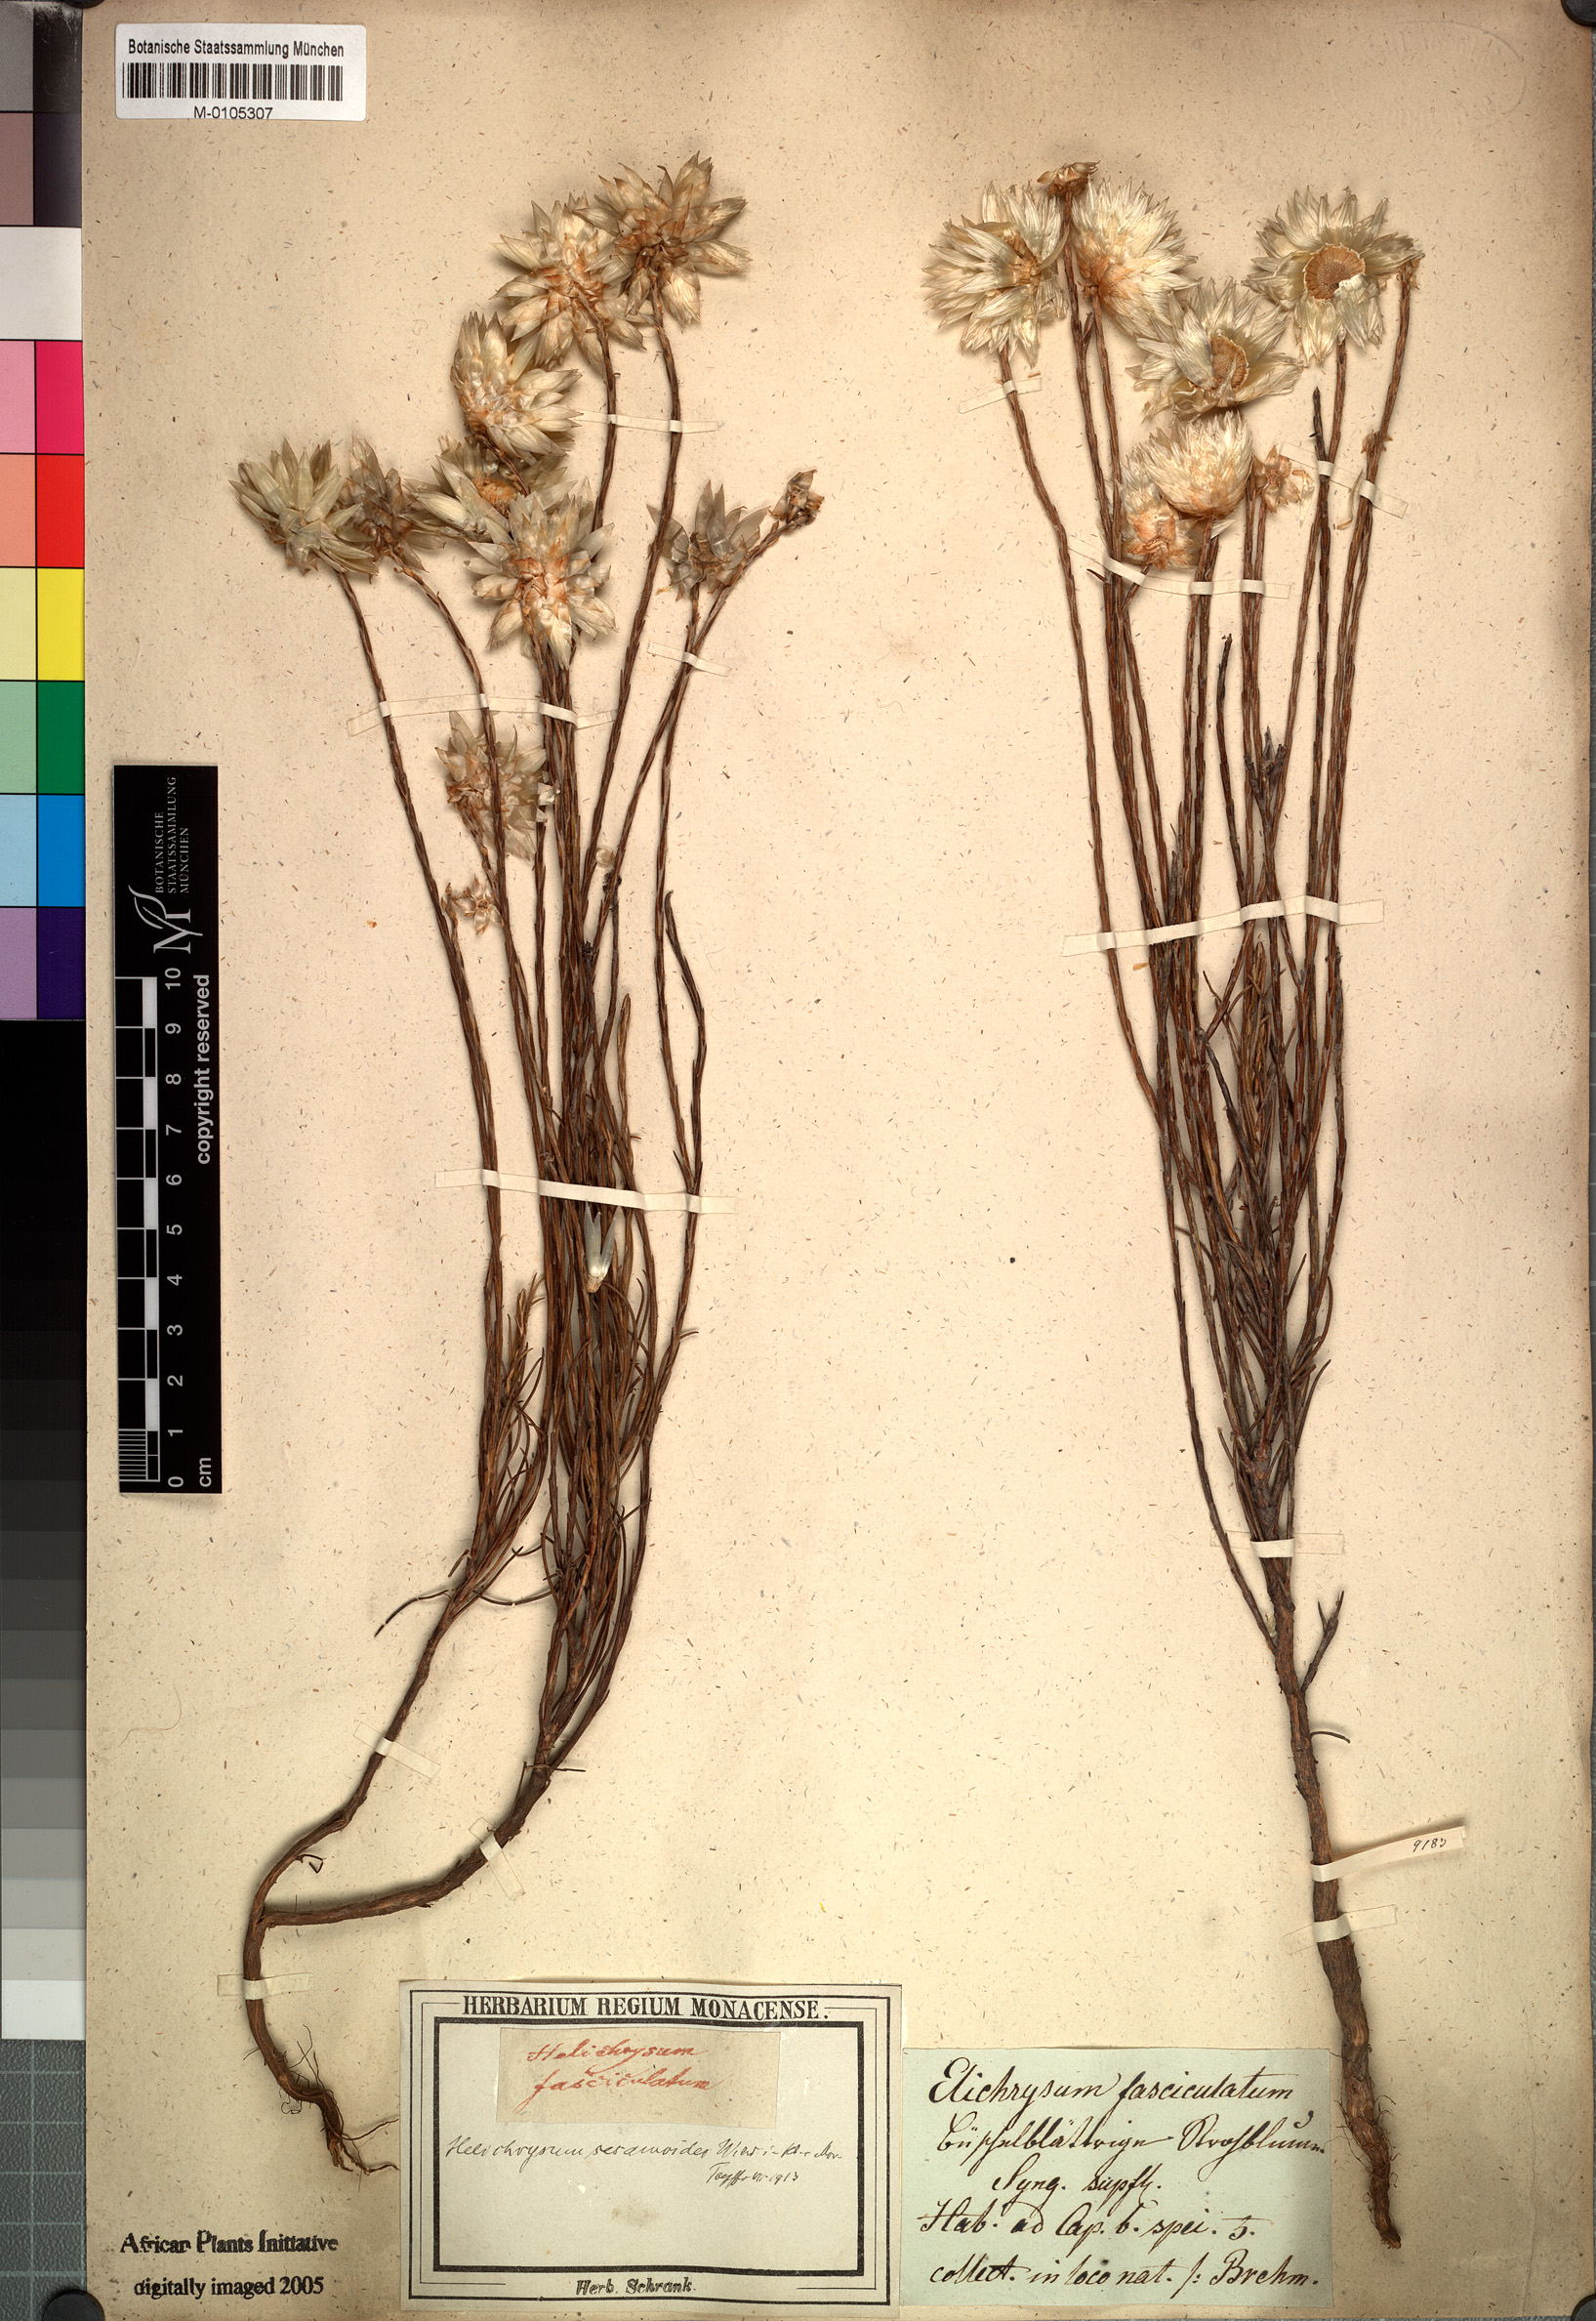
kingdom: Plantae
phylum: Tracheophyta
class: Magnoliopsida
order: Asterales
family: Asteraceae
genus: Edmondia
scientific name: Edmondia sesamoides
